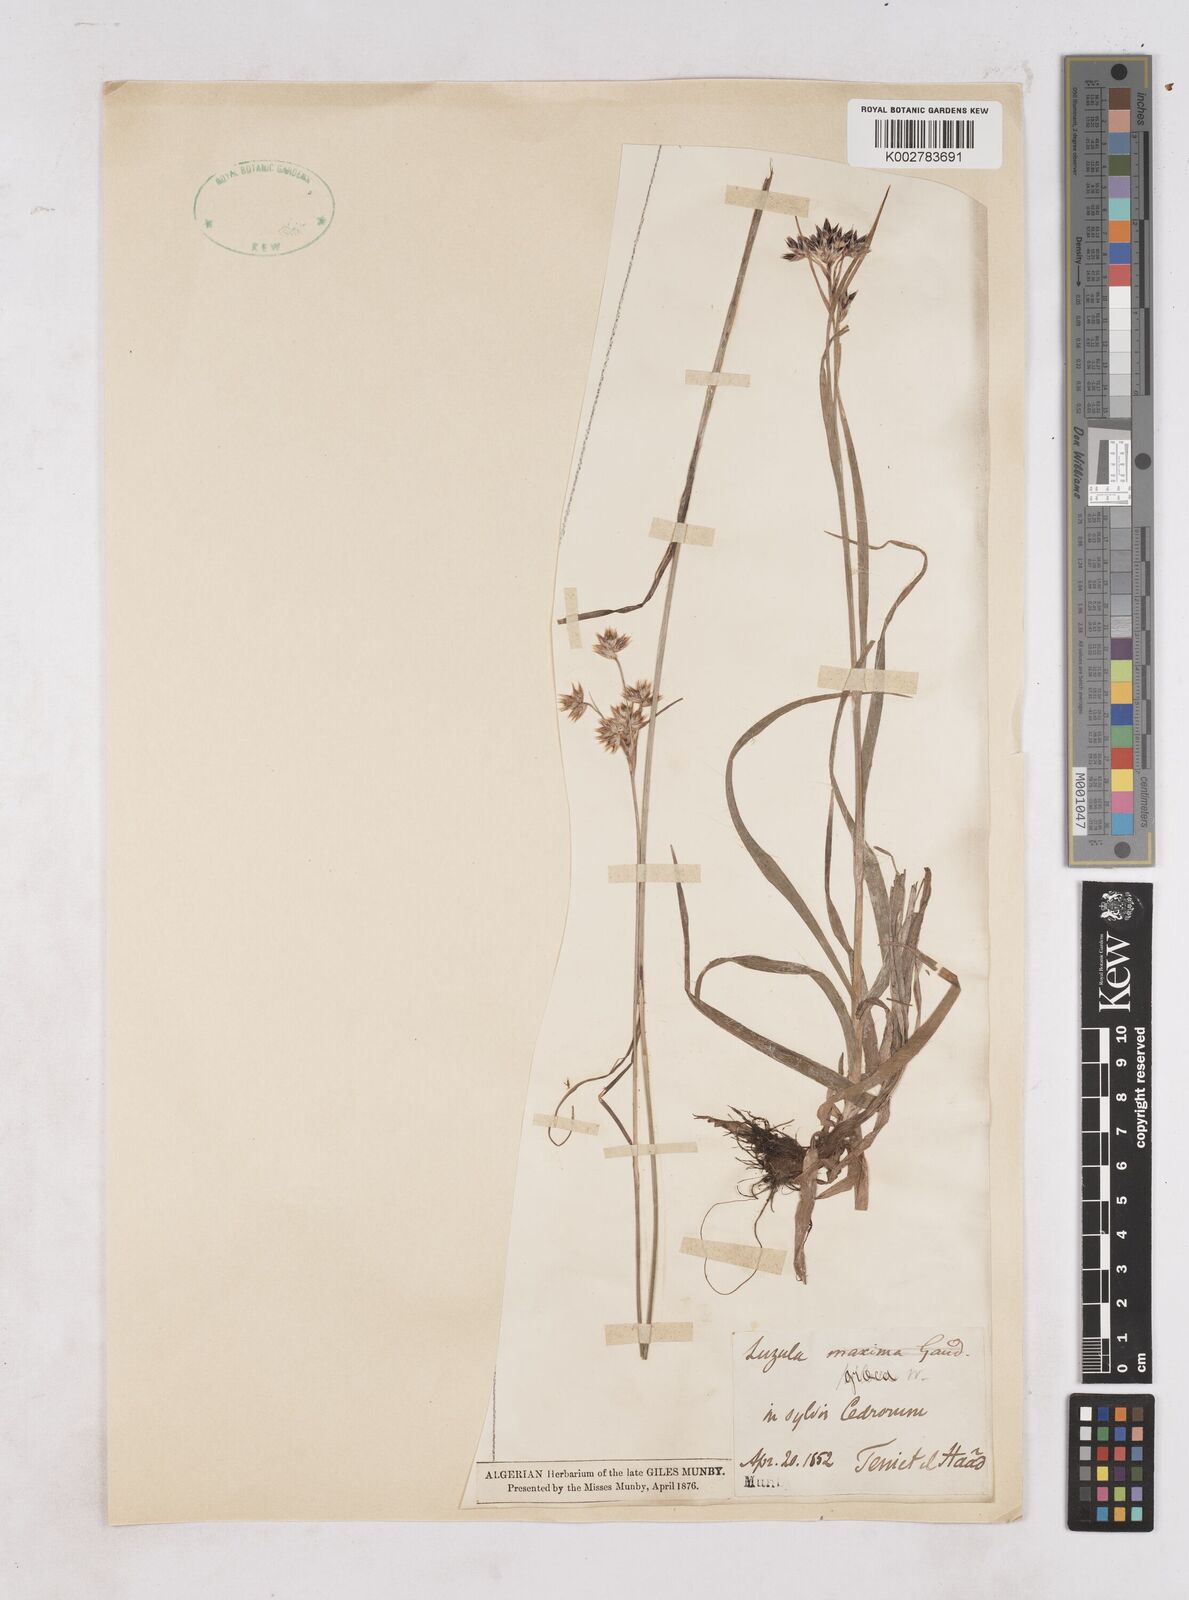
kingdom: Plantae
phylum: Tracheophyta
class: Liliopsida
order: Poales
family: Juncaceae
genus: Luzula
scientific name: Luzula nodulosa
